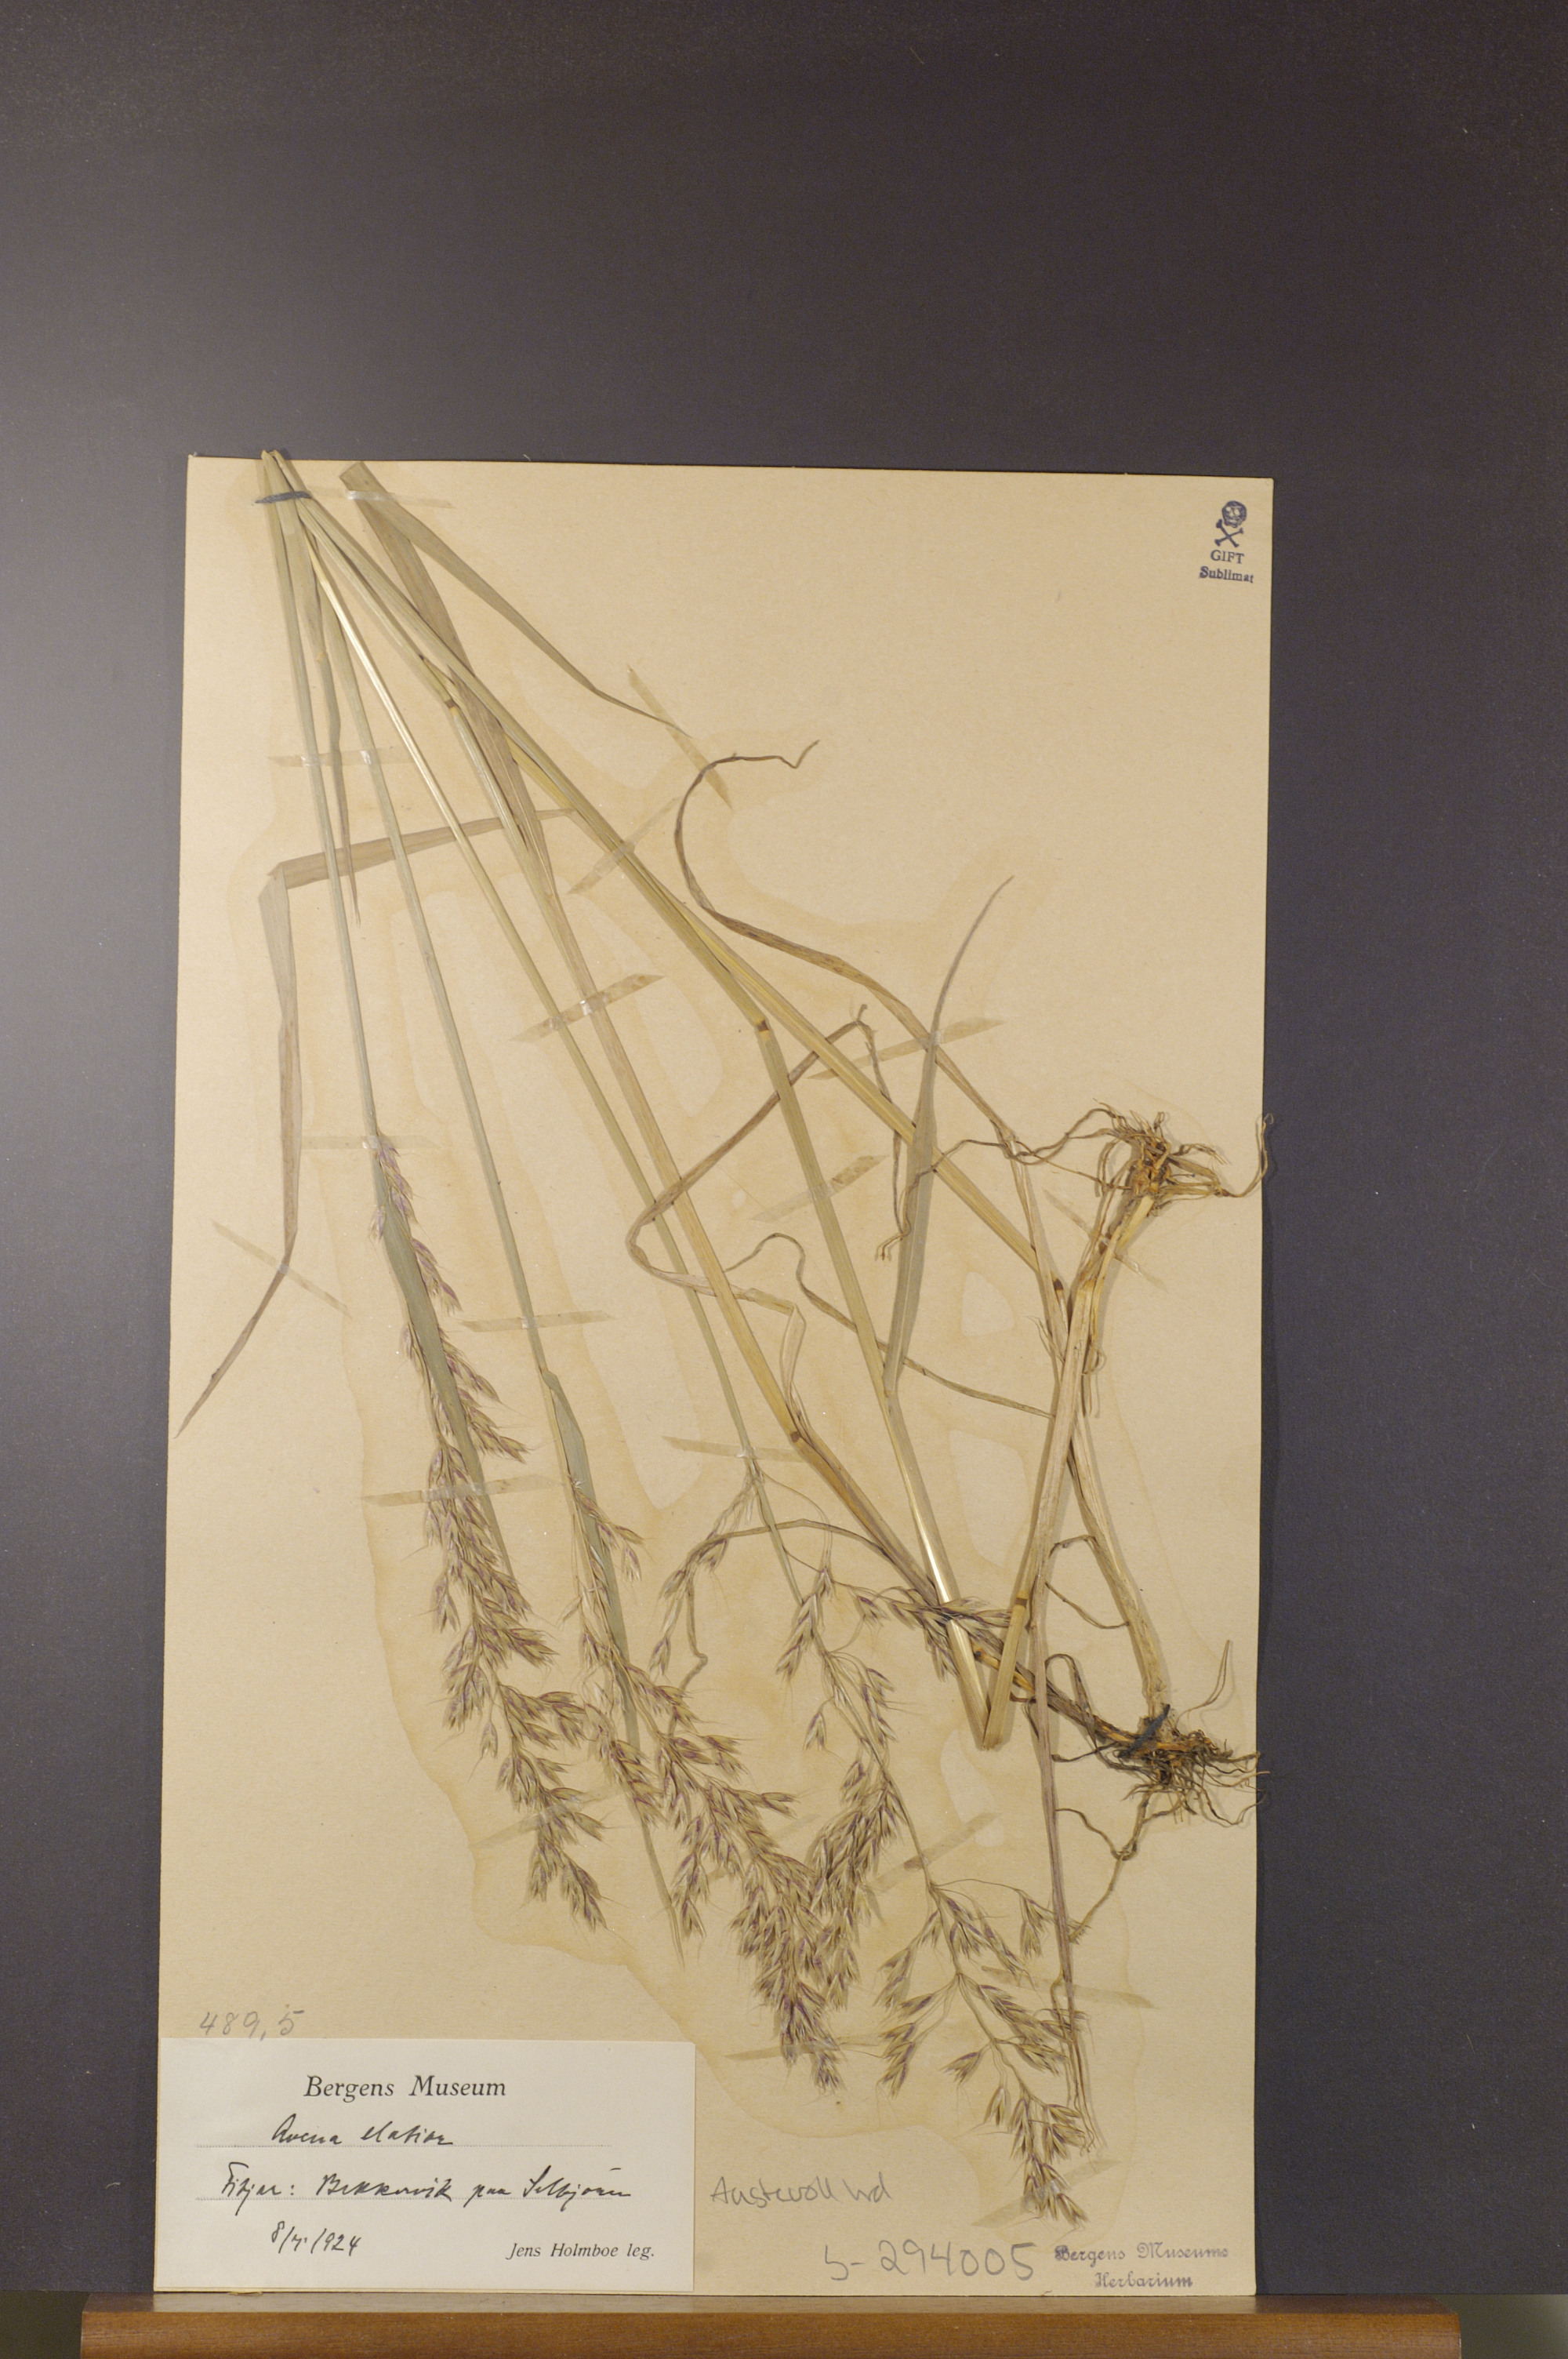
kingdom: Plantae
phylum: Tracheophyta
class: Liliopsida
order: Poales
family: Poaceae
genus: Arrhenatherum
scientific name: Arrhenatherum elatius
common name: Tall oatgrass
